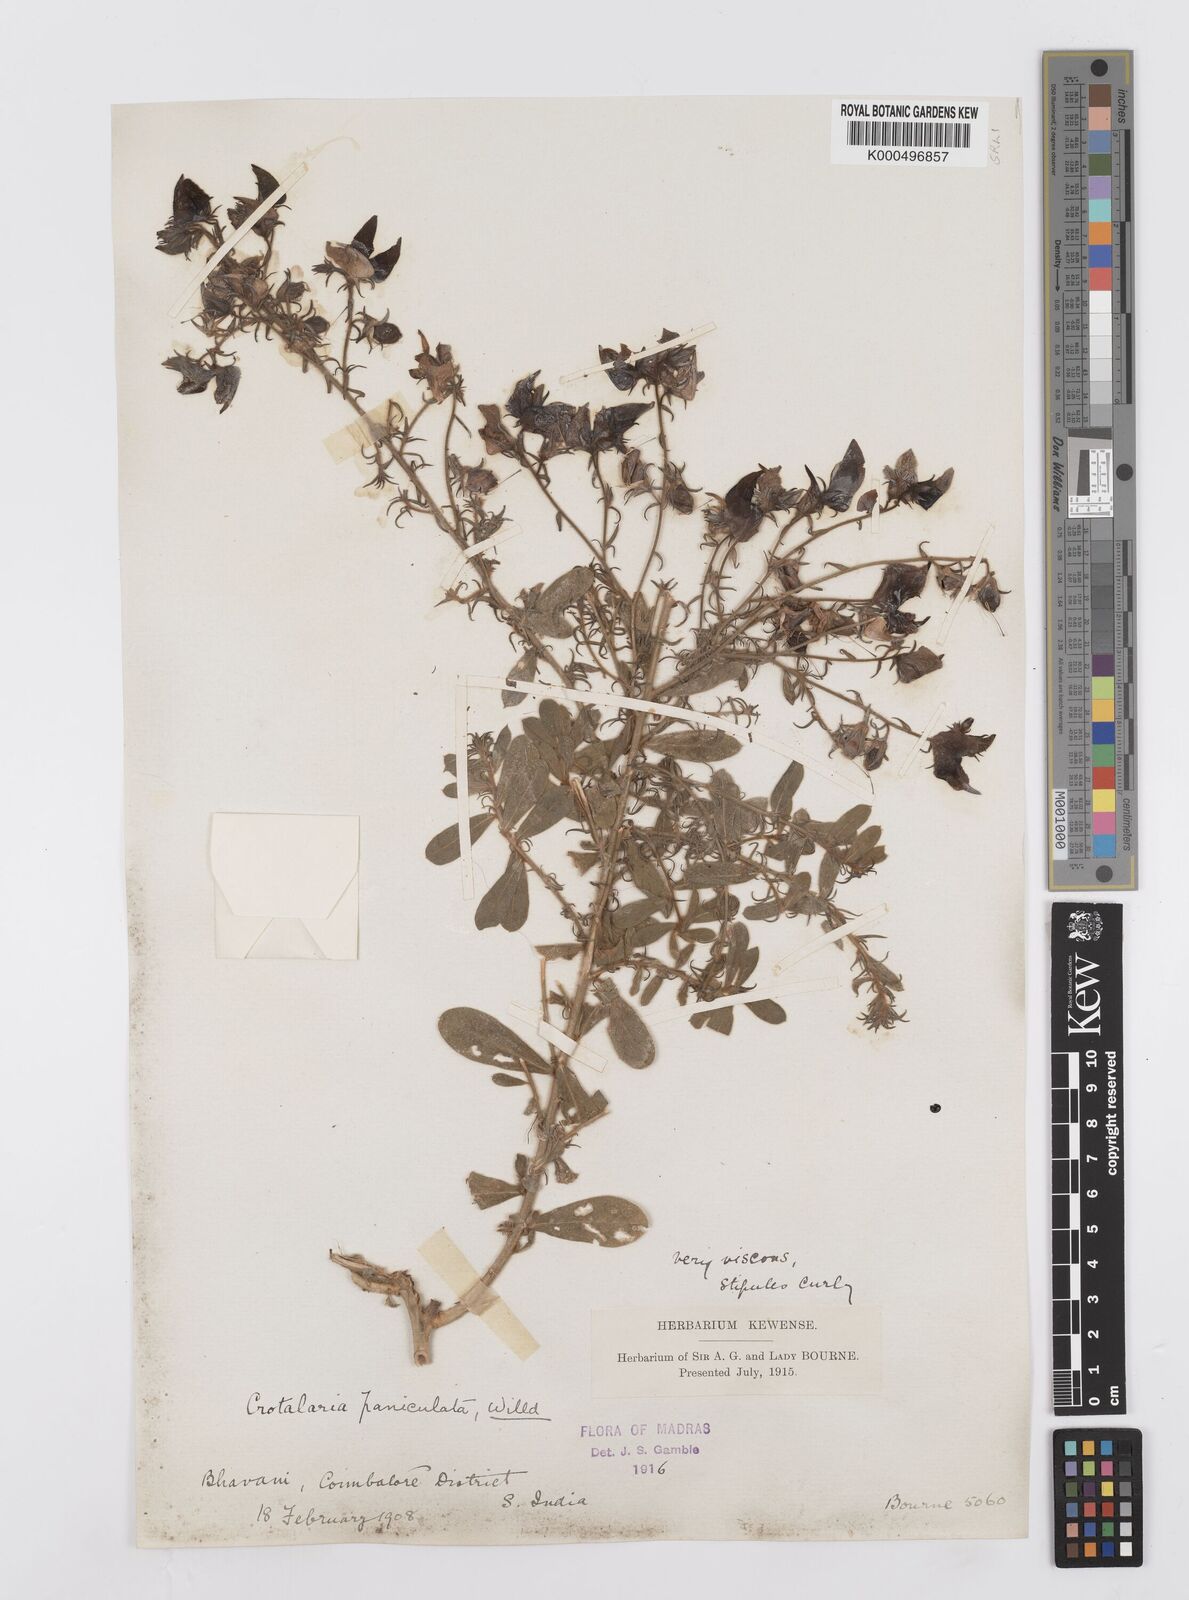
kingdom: Plantae
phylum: Tracheophyta
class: Magnoliopsida
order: Fabales
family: Fabaceae
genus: Crotalaria
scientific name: Crotalaria paniculata
